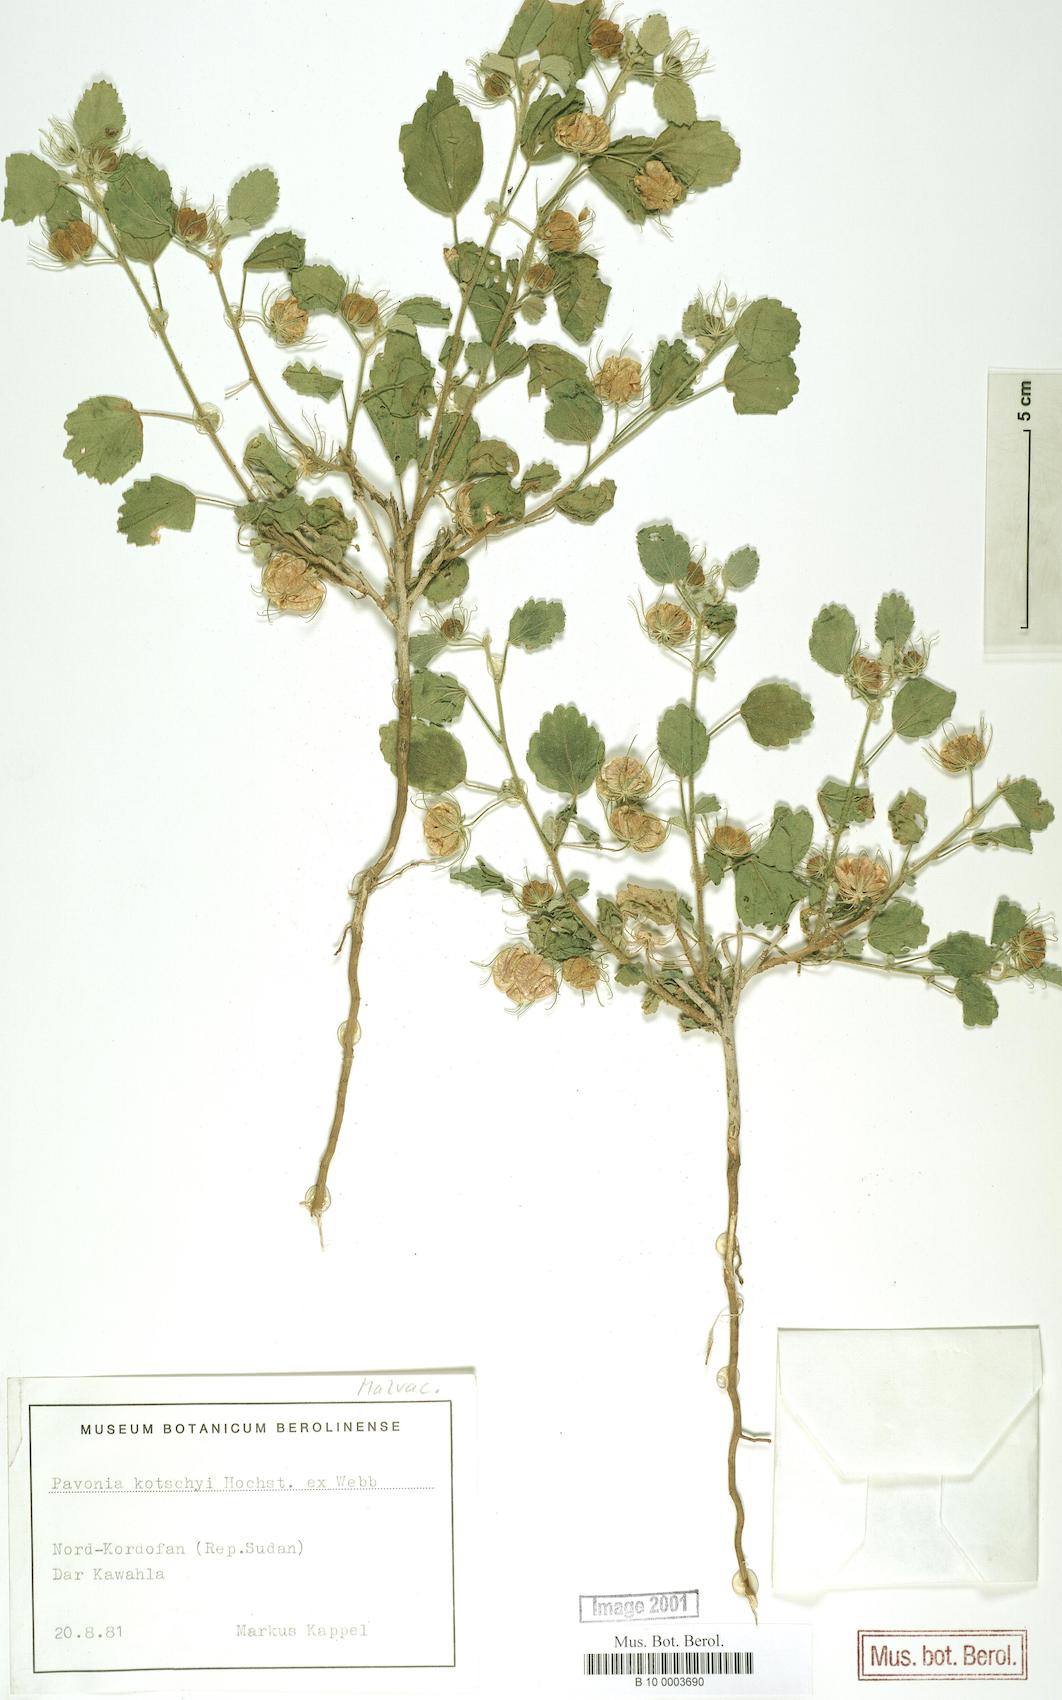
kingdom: Plantae
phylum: Tracheophyta
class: Magnoliopsida
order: Malvales
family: Malvaceae
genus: Pavonia
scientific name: Pavonia kotschyi
